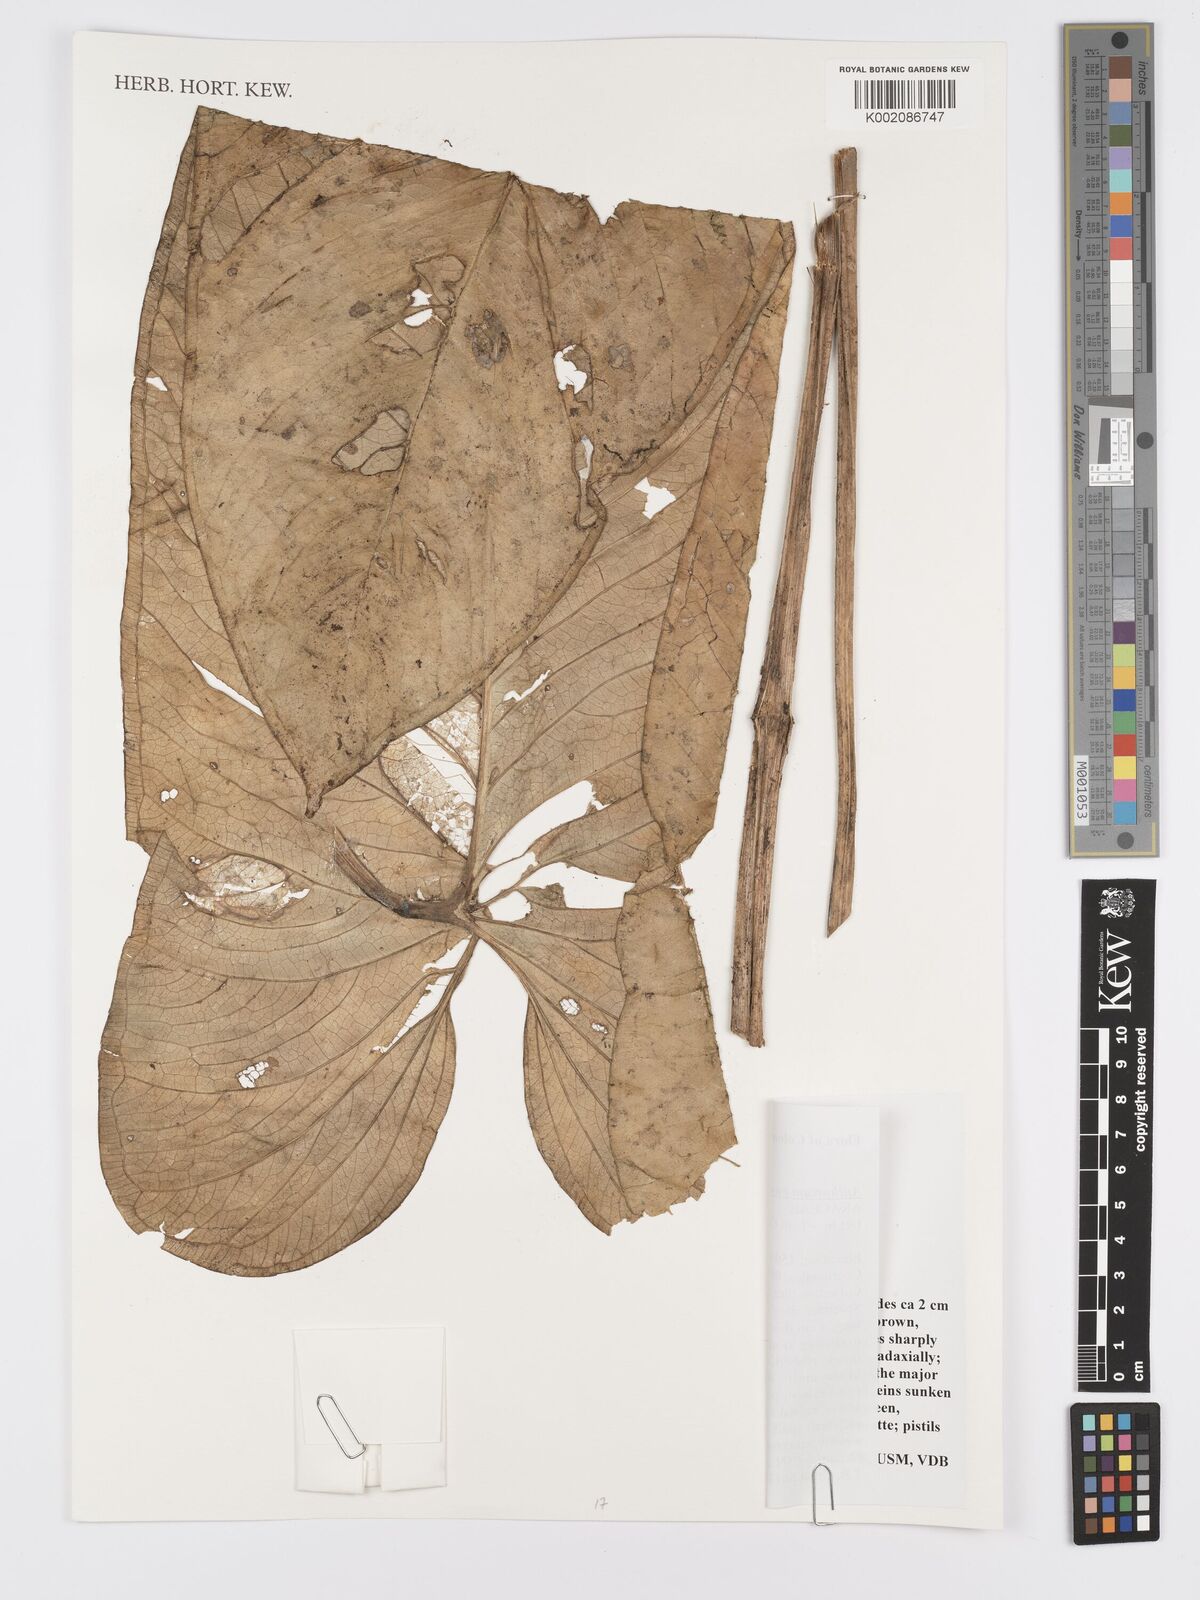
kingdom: Plantae
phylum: Tracheophyta
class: Liliopsida
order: Alismatales
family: Araceae
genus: Anthurium
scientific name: Anthurium panamense
